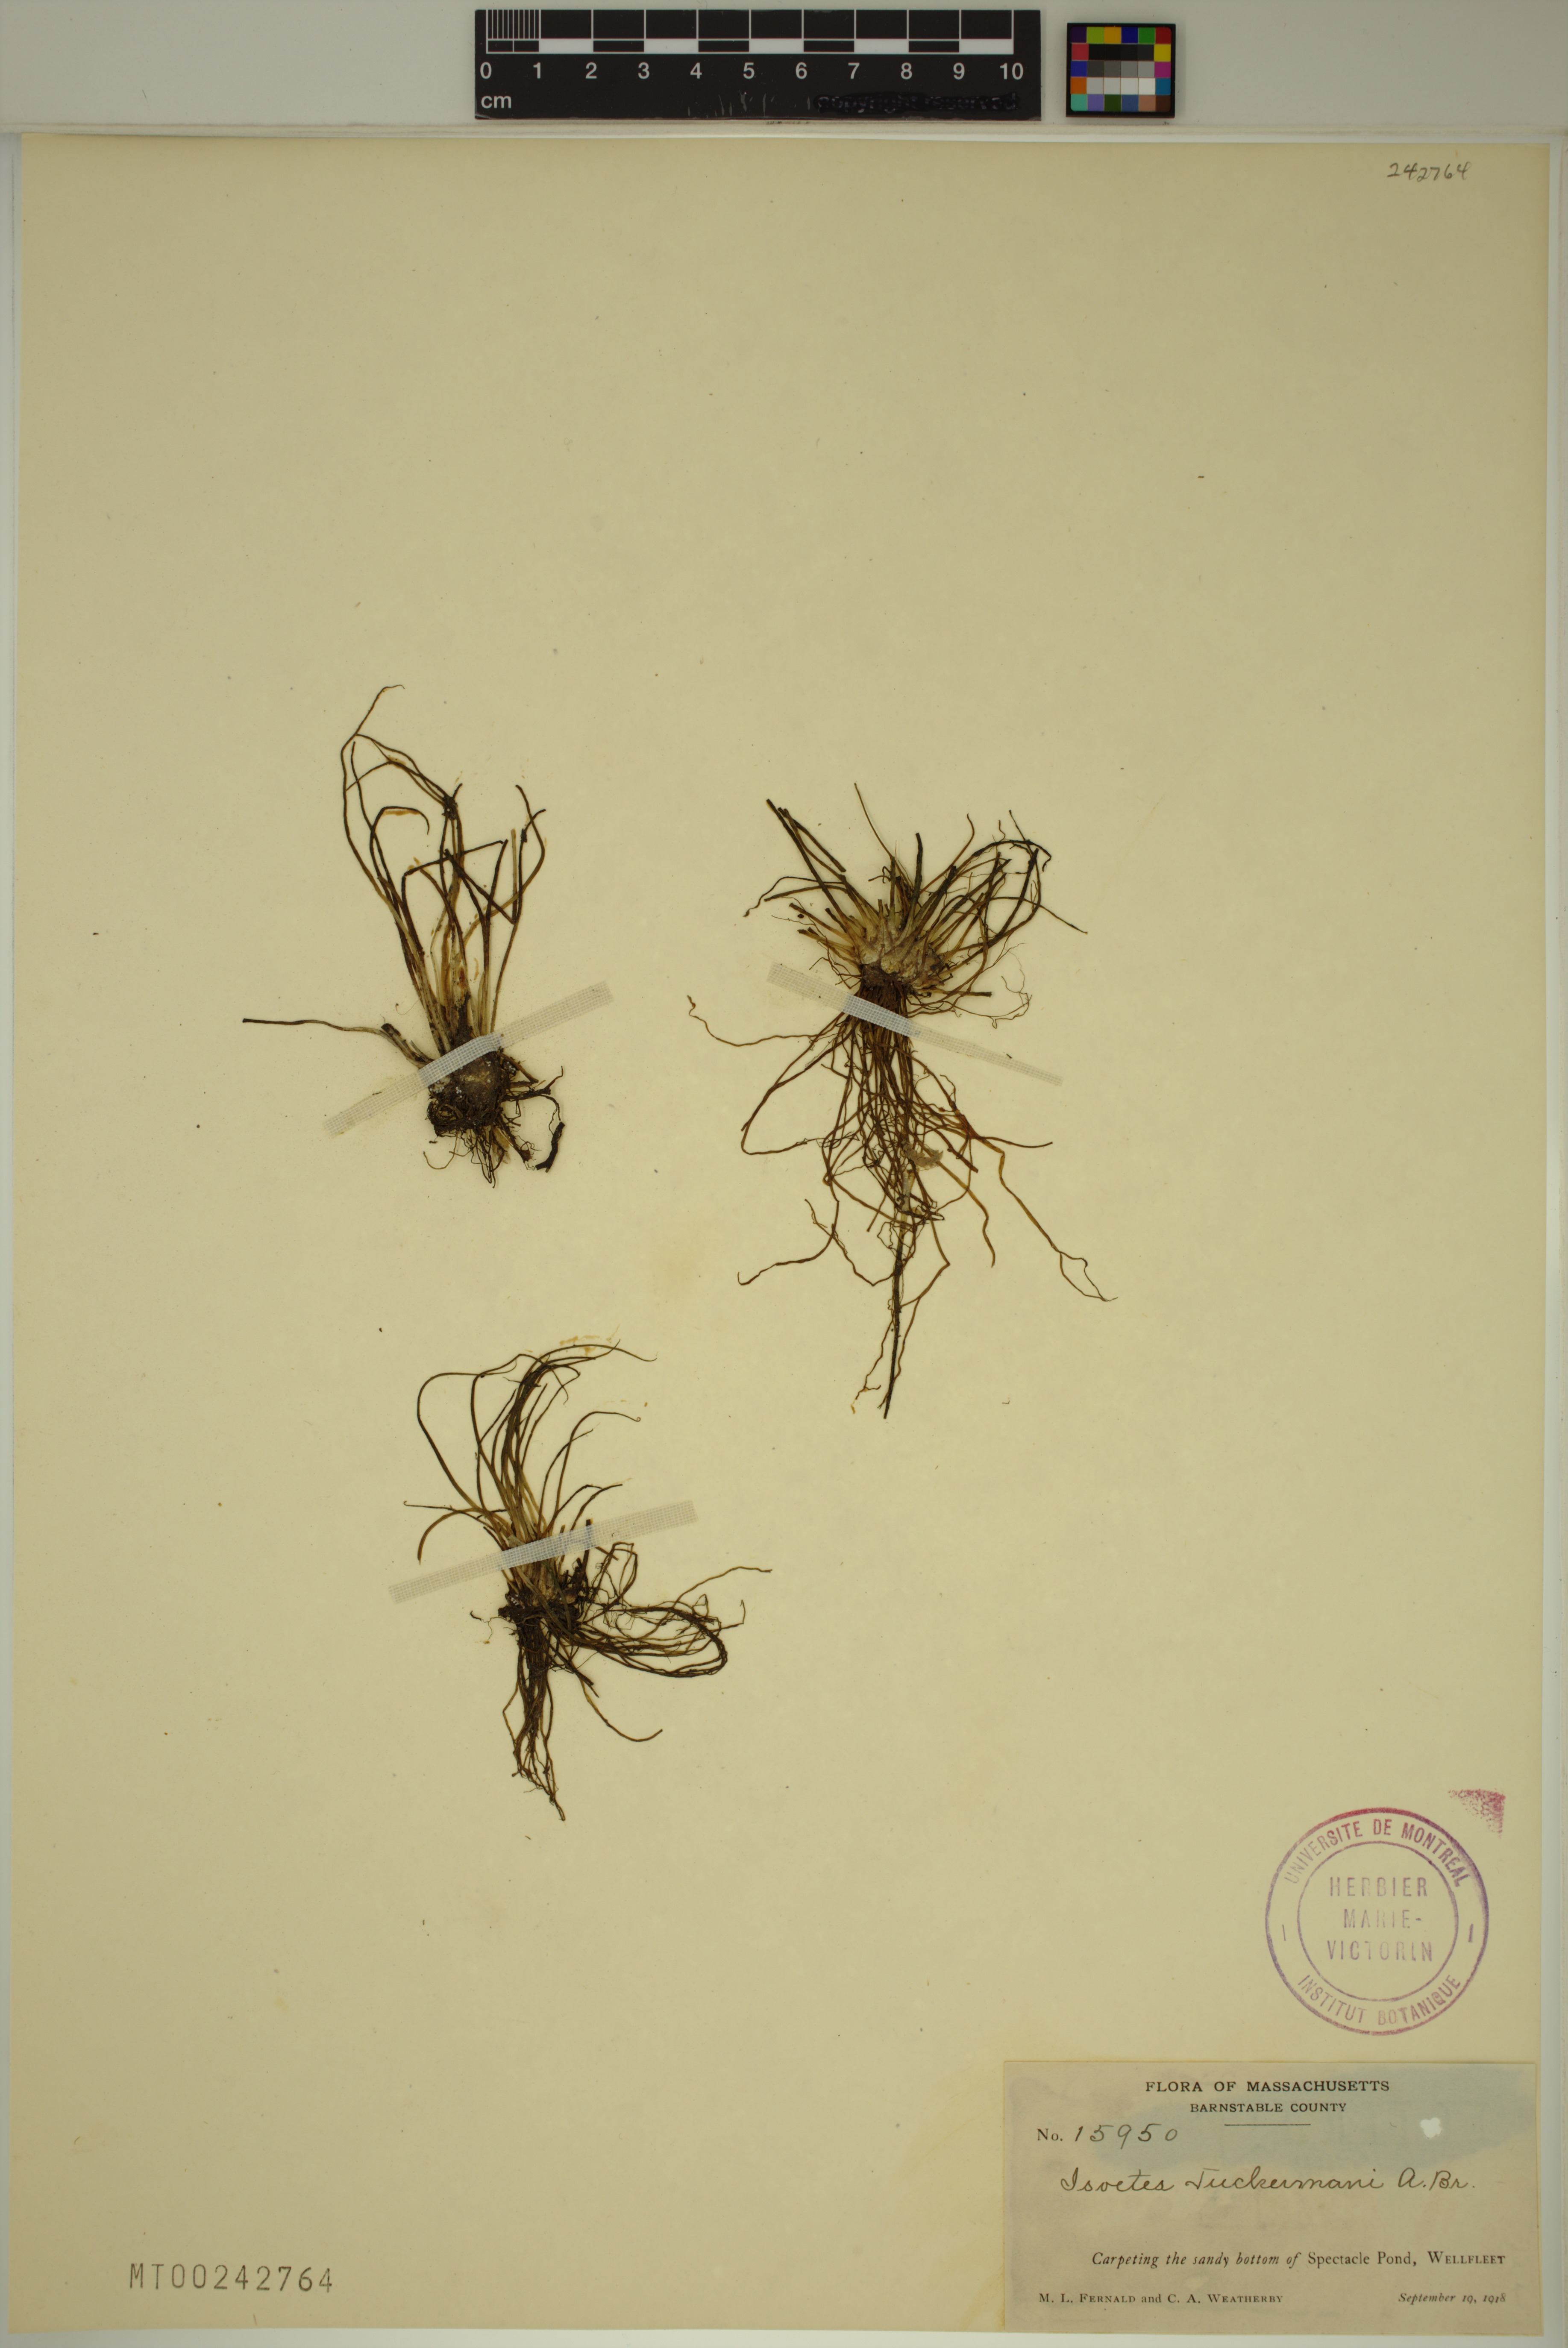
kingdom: Plantae
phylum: Tracheophyta
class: Lycopodiopsida
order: Isoetales
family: Isoetaceae
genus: Isoetes
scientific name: Isoetes tuckermanii
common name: Tuckerman's quillwort
